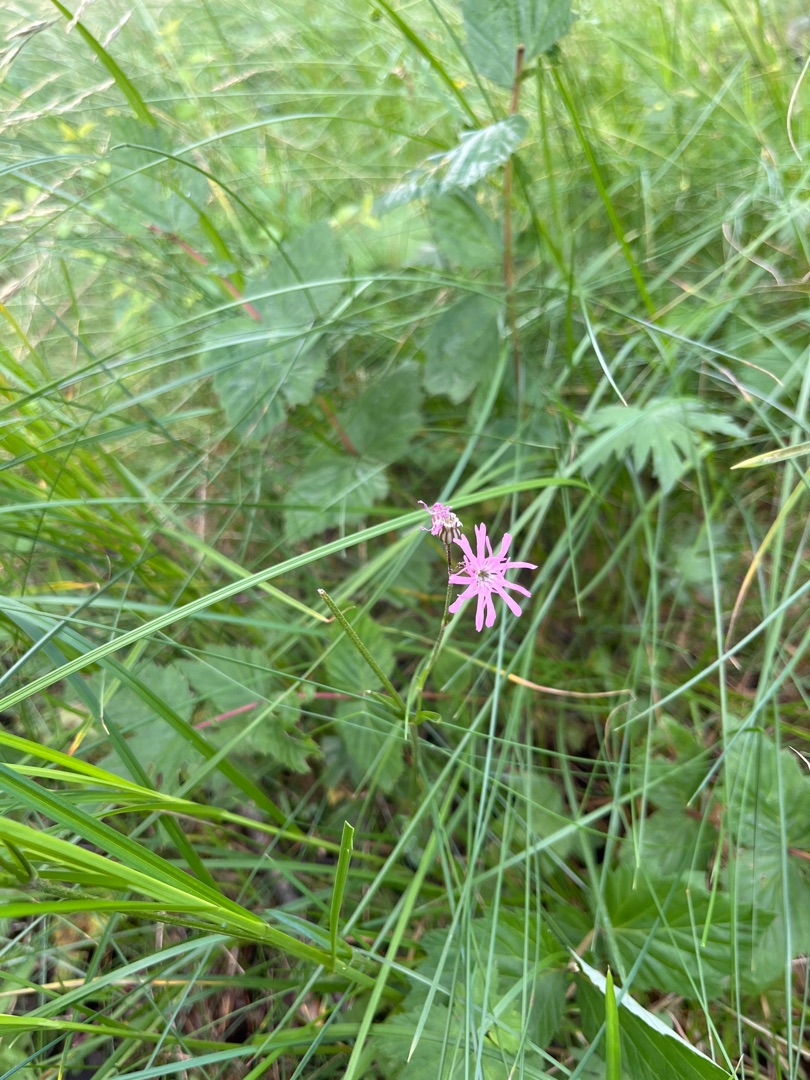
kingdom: Plantae
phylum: Tracheophyta
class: Magnoliopsida
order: Caryophyllales
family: Caryophyllaceae
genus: Silene
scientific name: Silene flos-cuculi
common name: Trævlekrone
